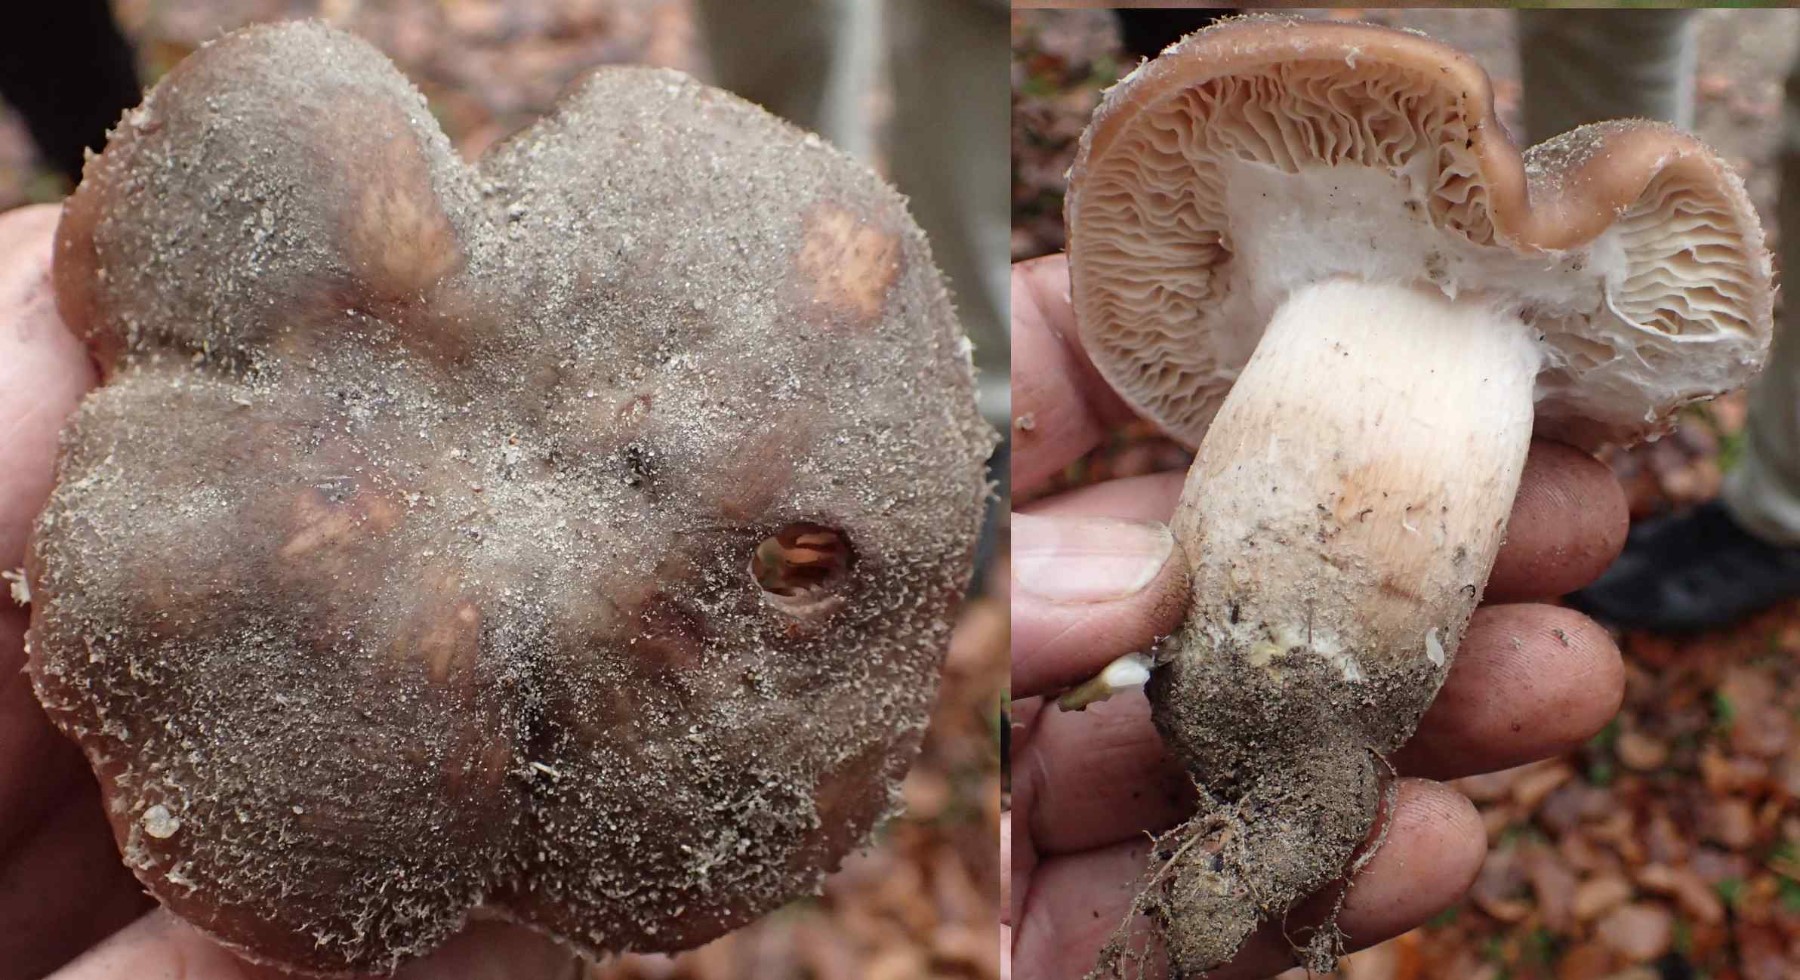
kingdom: Fungi
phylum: Basidiomycota
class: Agaricomycetes
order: Agaricales
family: Physalacriaceae
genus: Armillaria
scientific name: Armillaria lutea
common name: køllestokket honningsvamp
